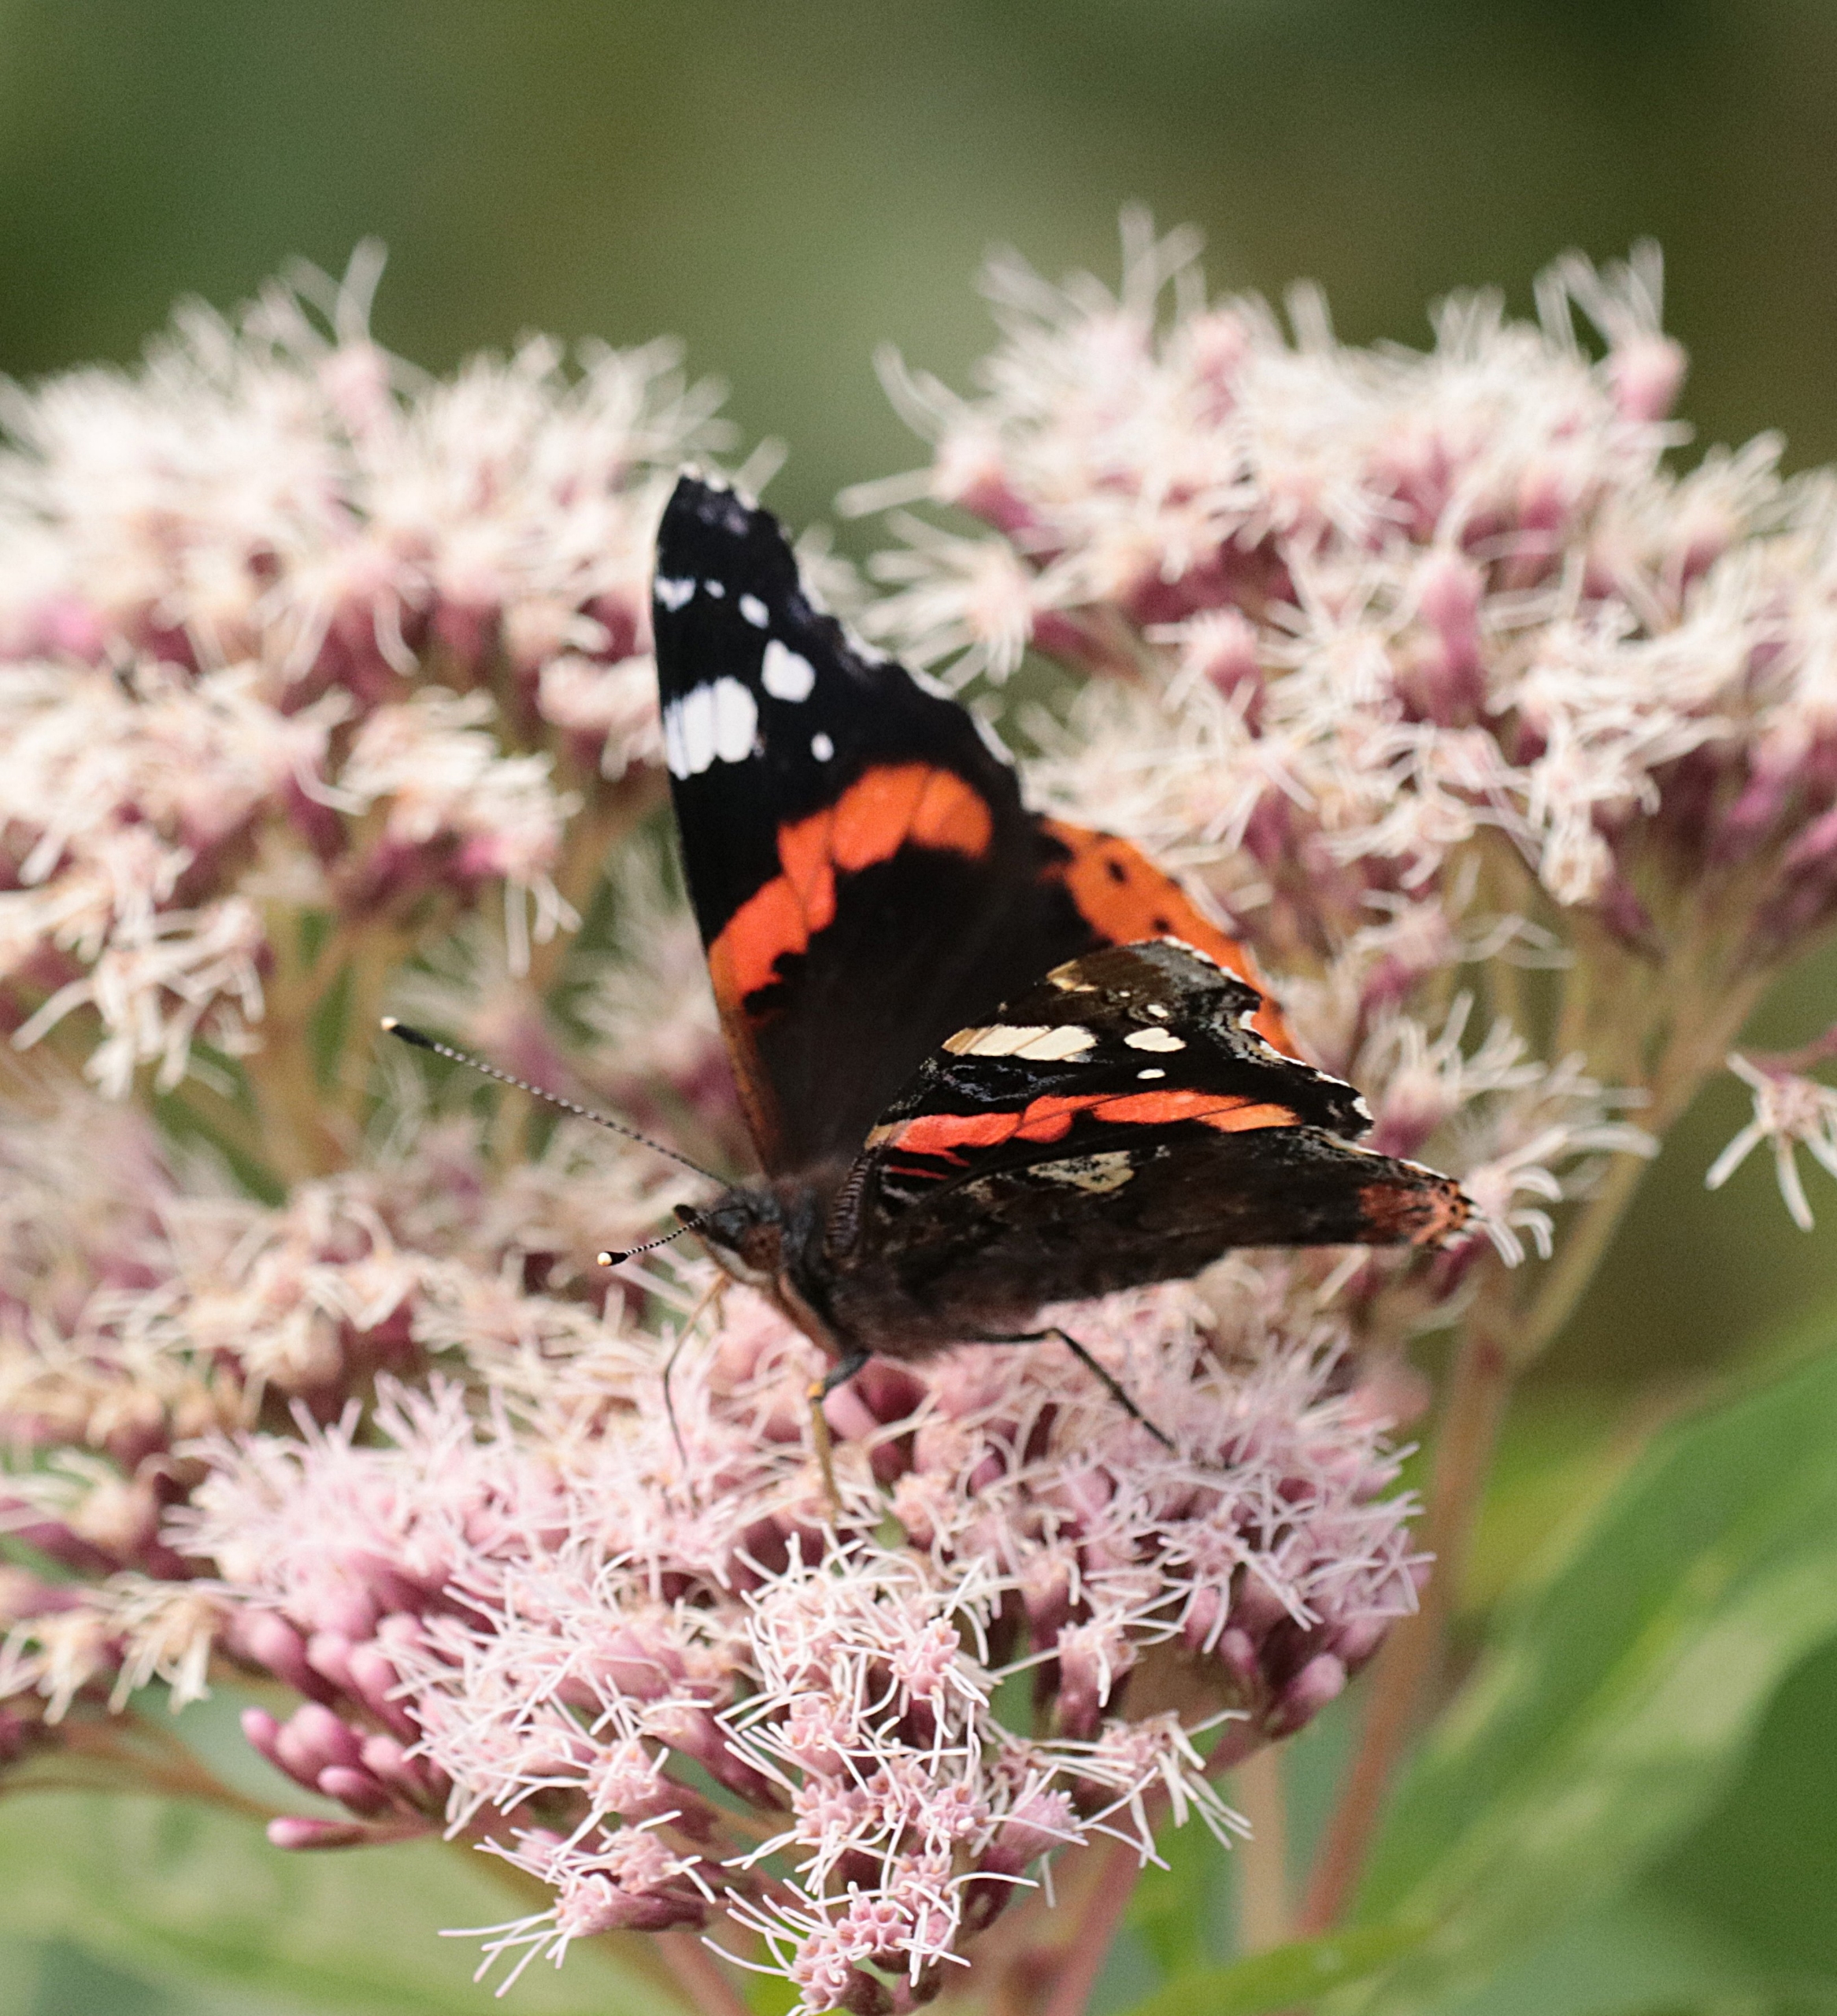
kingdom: Animalia
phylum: Arthropoda
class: Insecta
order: Lepidoptera
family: Nymphalidae
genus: Vanessa
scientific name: Vanessa atalanta
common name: Admiral
